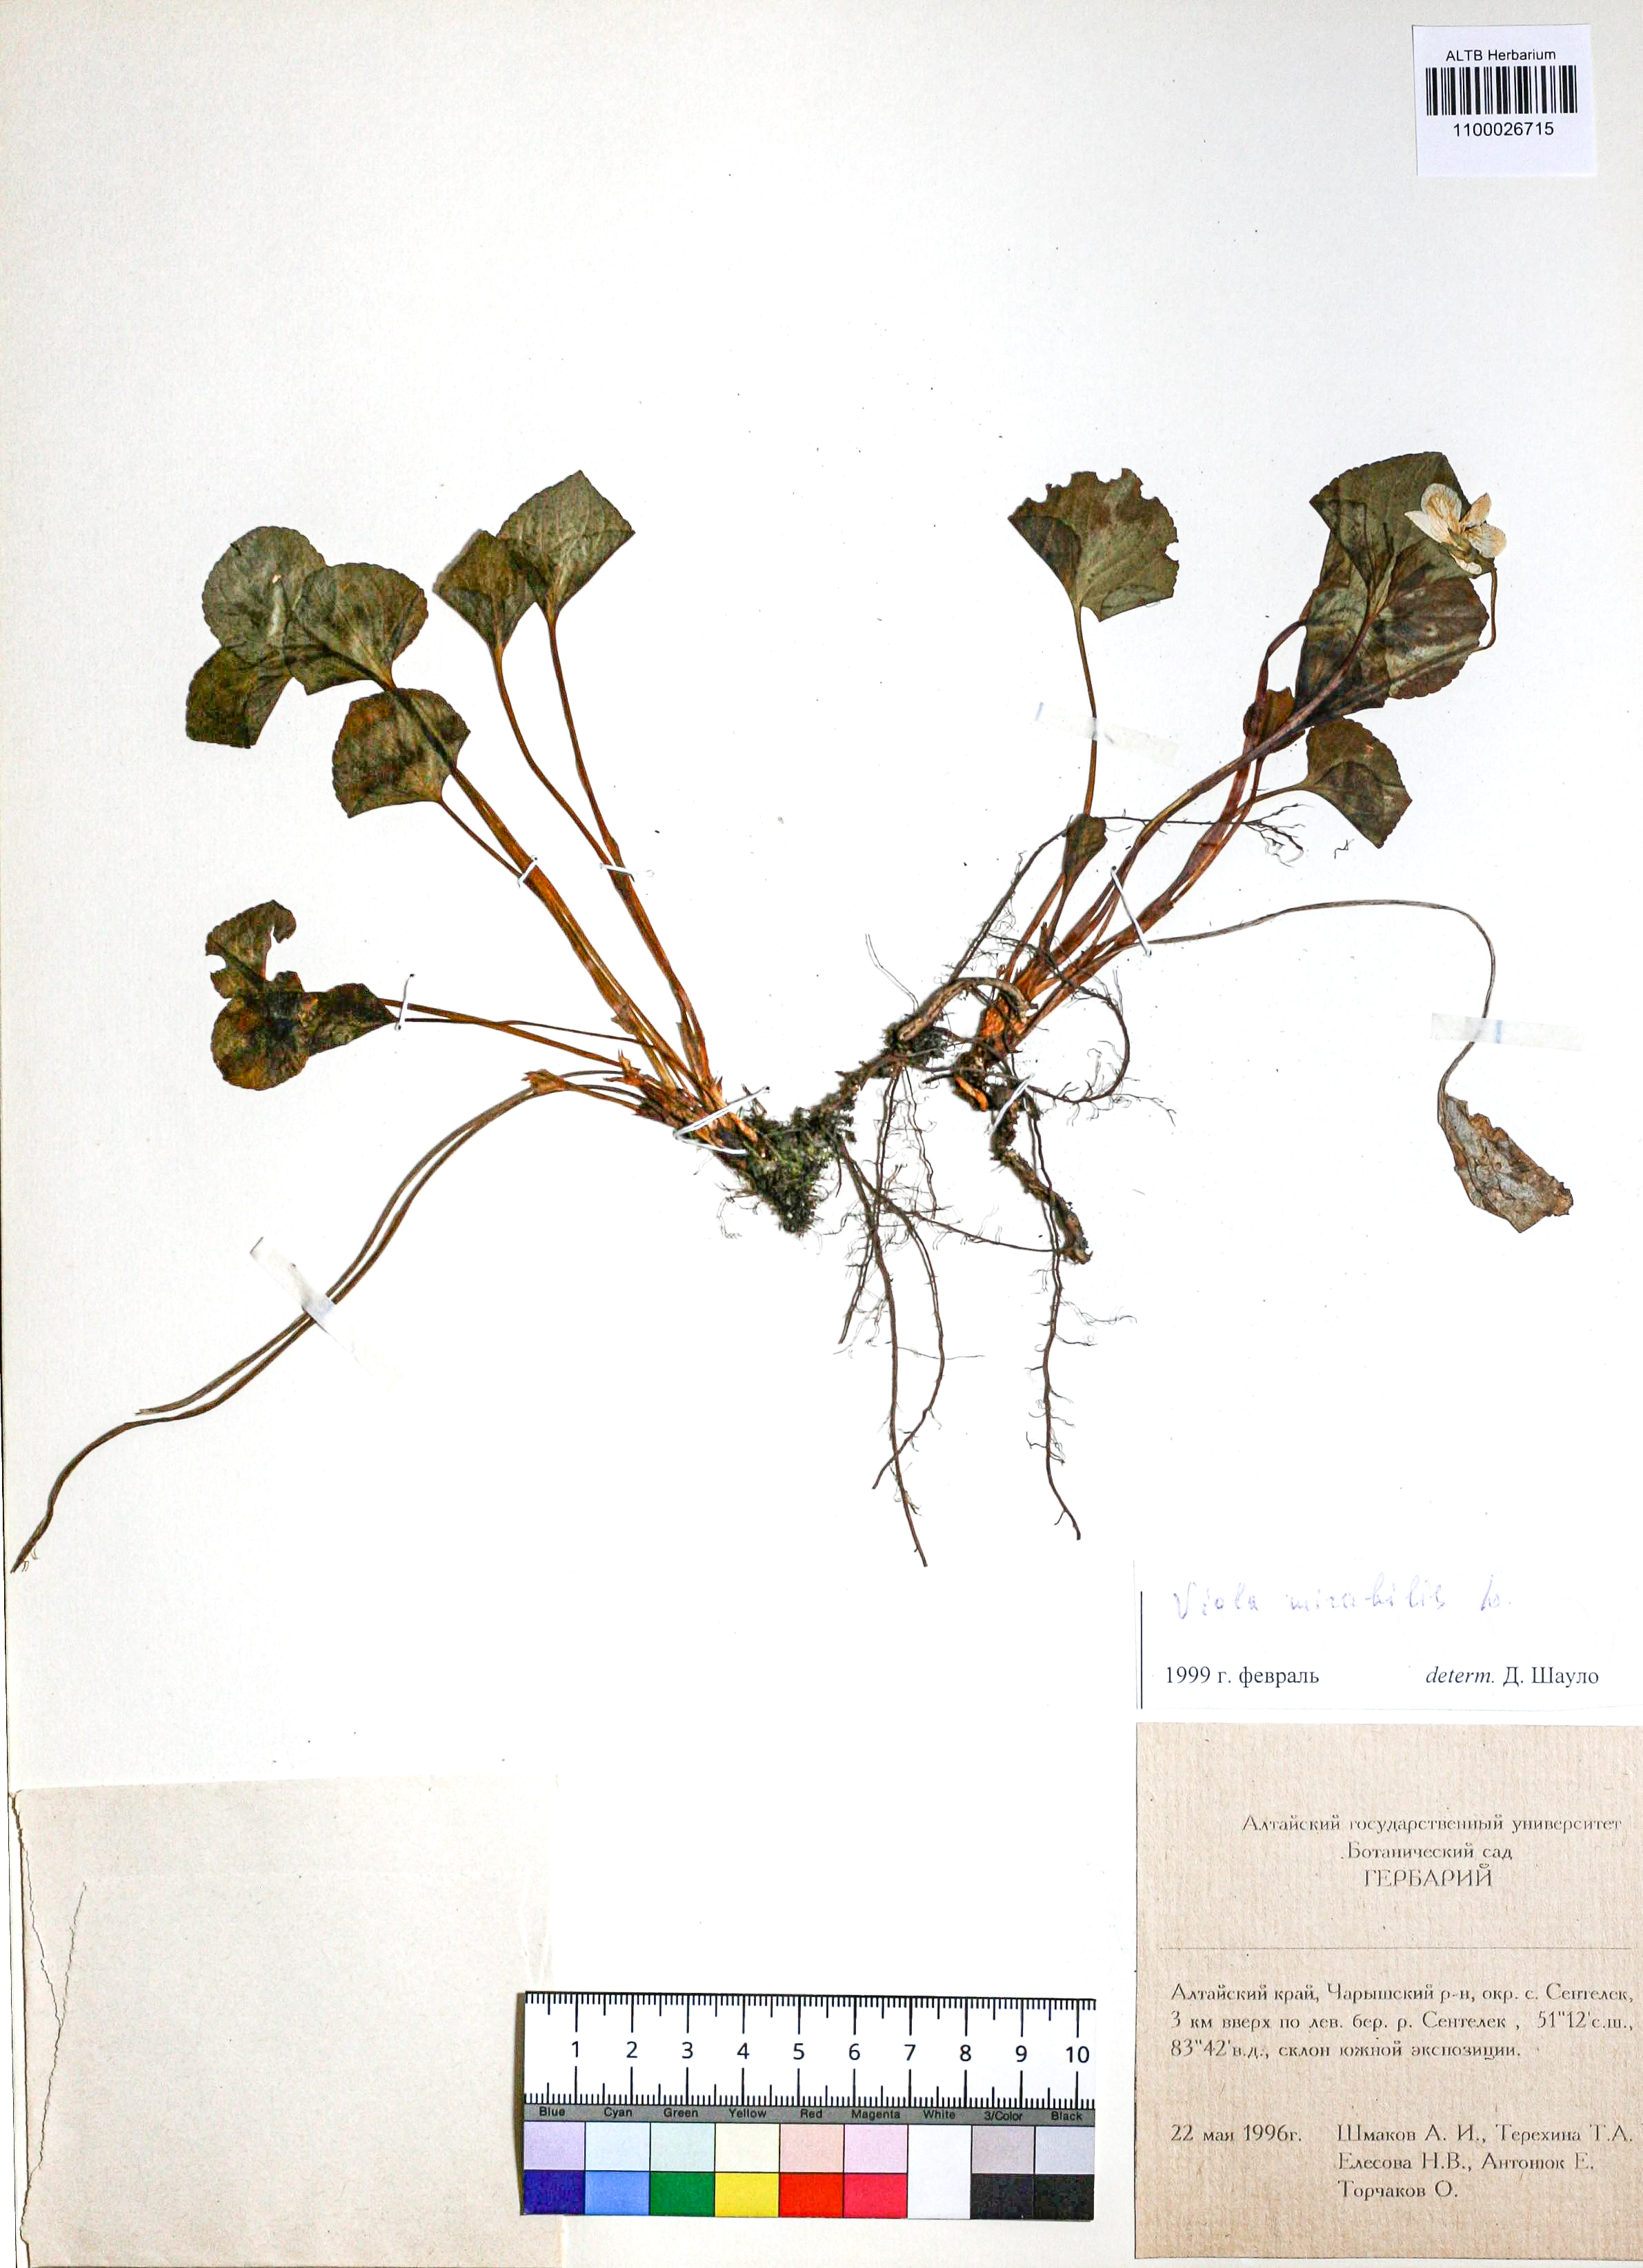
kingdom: Plantae
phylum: Tracheophyta
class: Magnoliopsida
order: Malpighiales
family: Violaceae
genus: Viola
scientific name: Viola mirabilis
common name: Wonder violet
